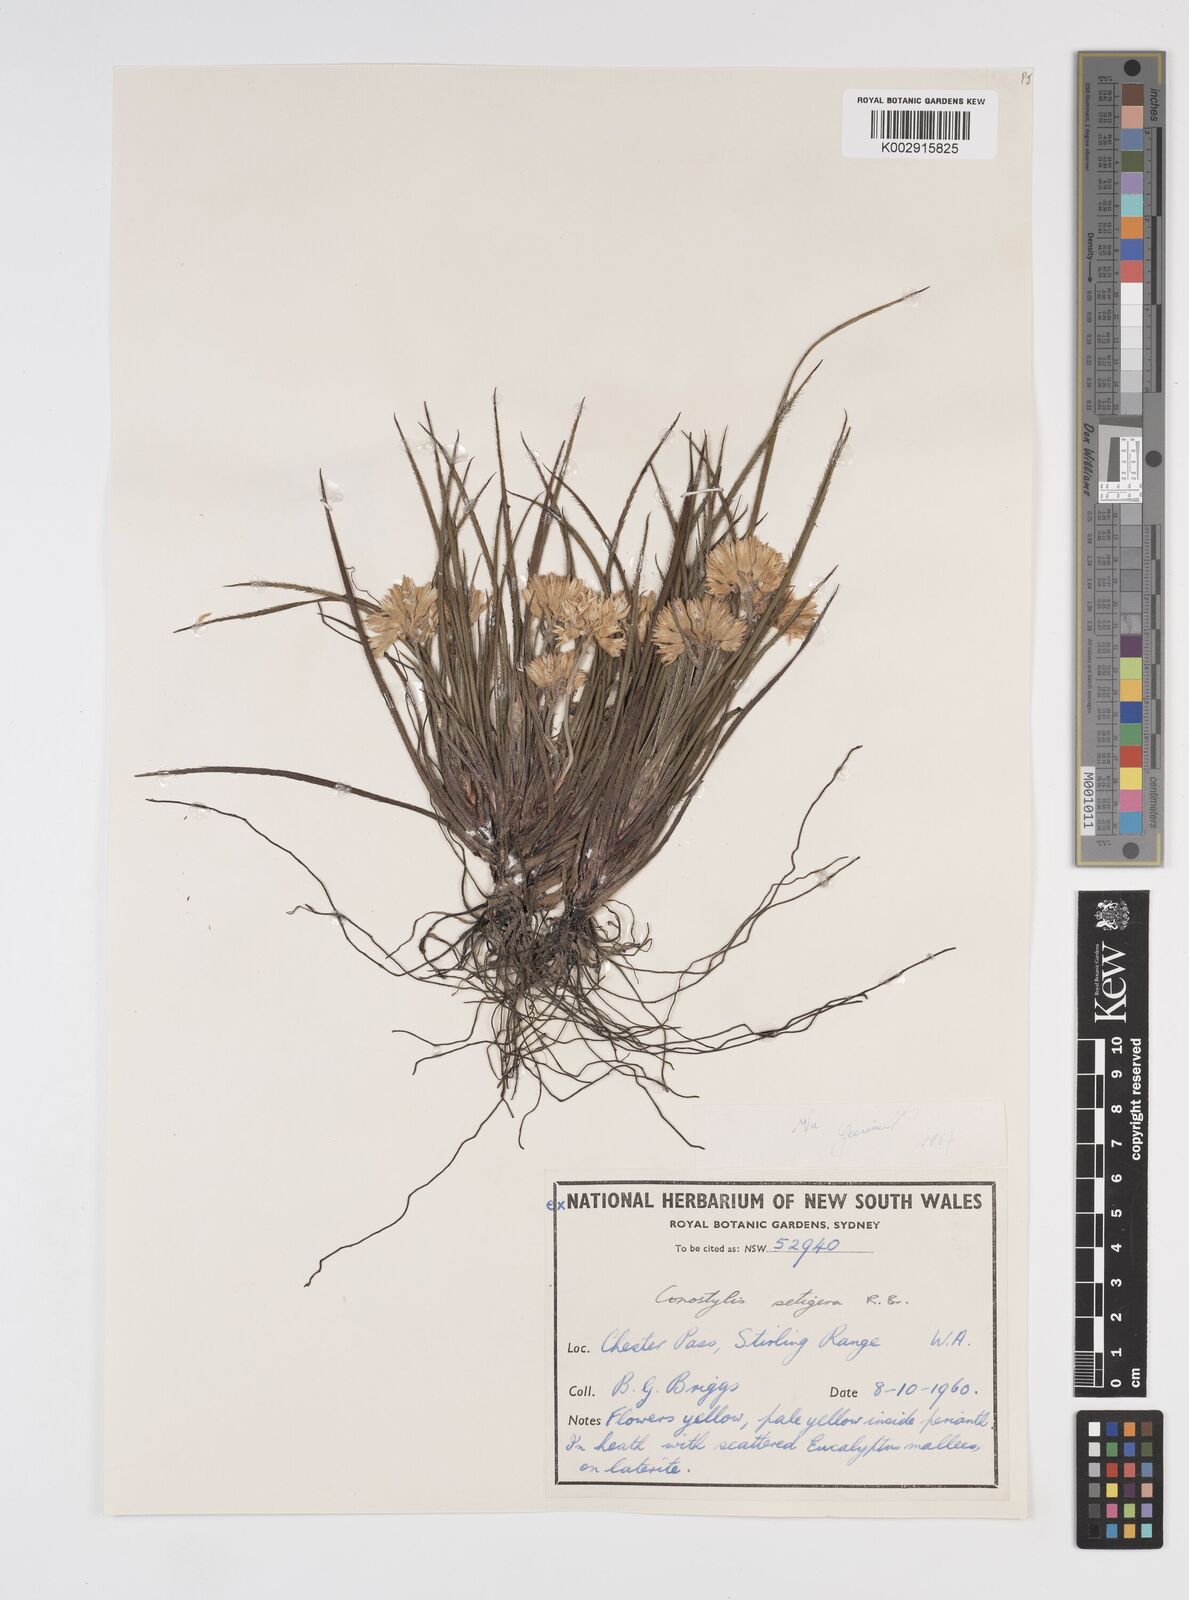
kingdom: Plantae
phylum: Tracheophyta
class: Liliopsida
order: Commelinales
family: Haemodoraceae
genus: Conostylis
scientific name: Conostylis setigera
